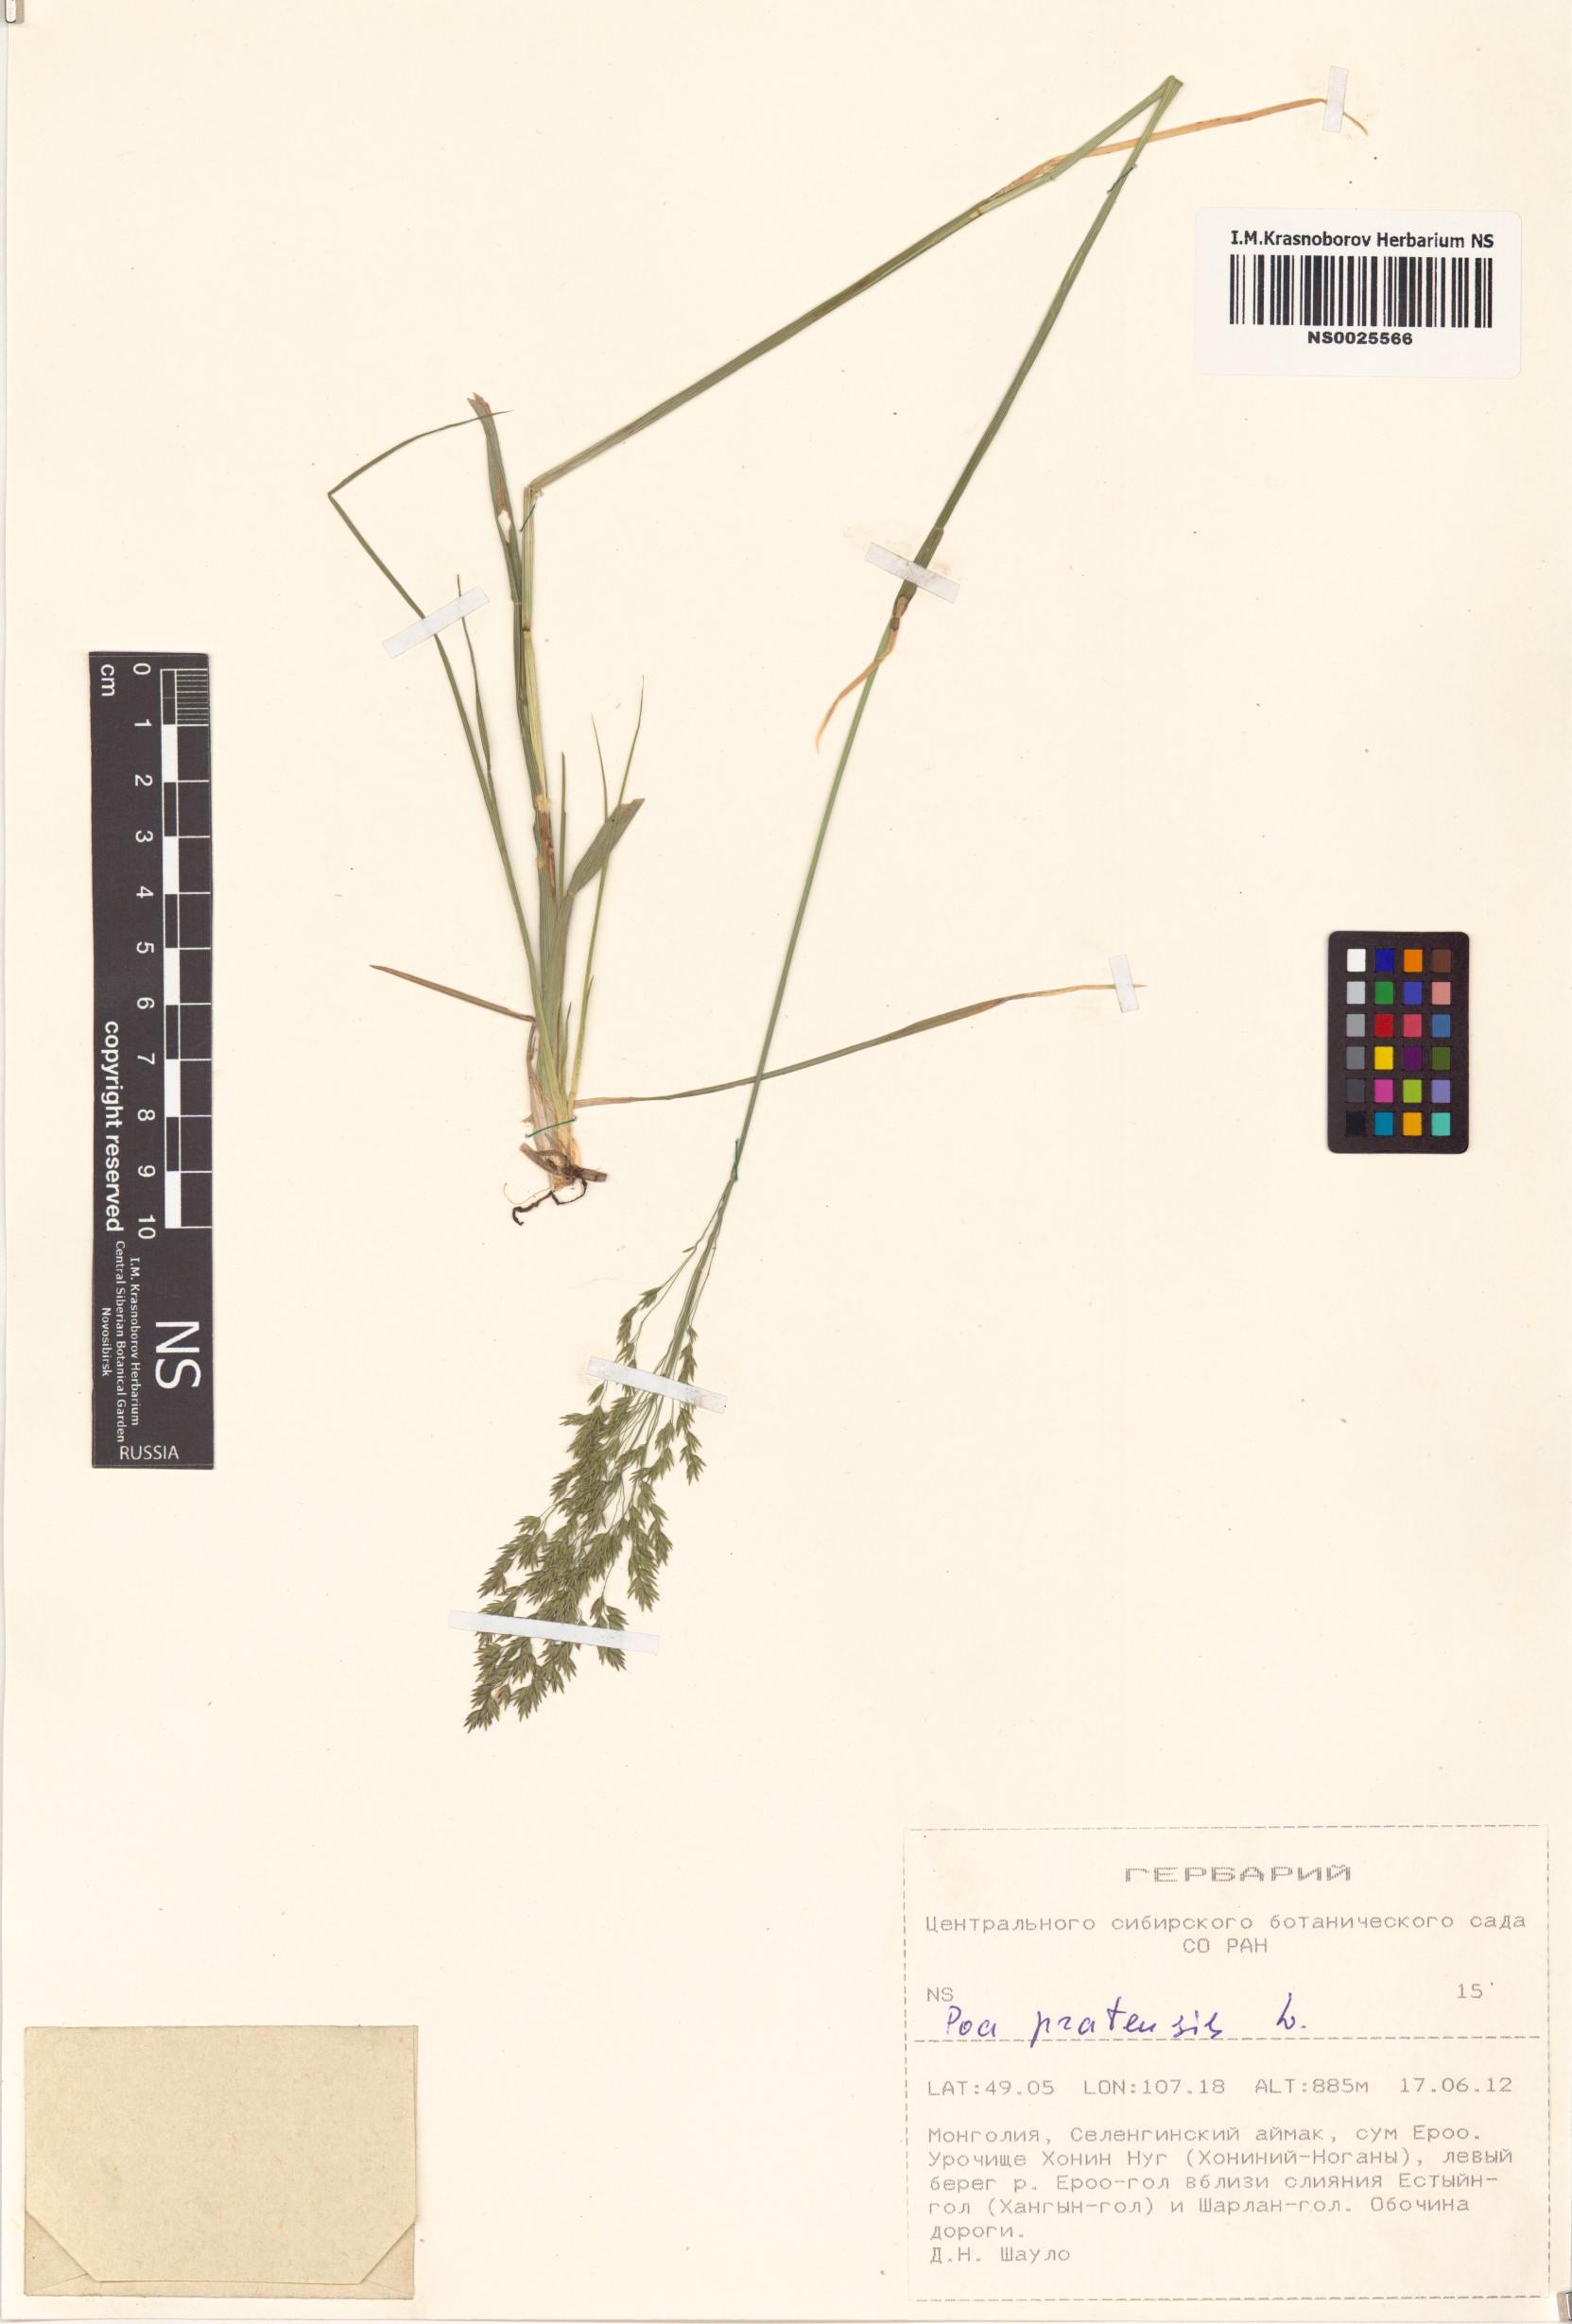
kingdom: Plantae
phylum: Tracheophyta
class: Liliopsida
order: Poales
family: Poaceae
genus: Poa
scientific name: Poa pratensis
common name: Kentucky bluegrass
